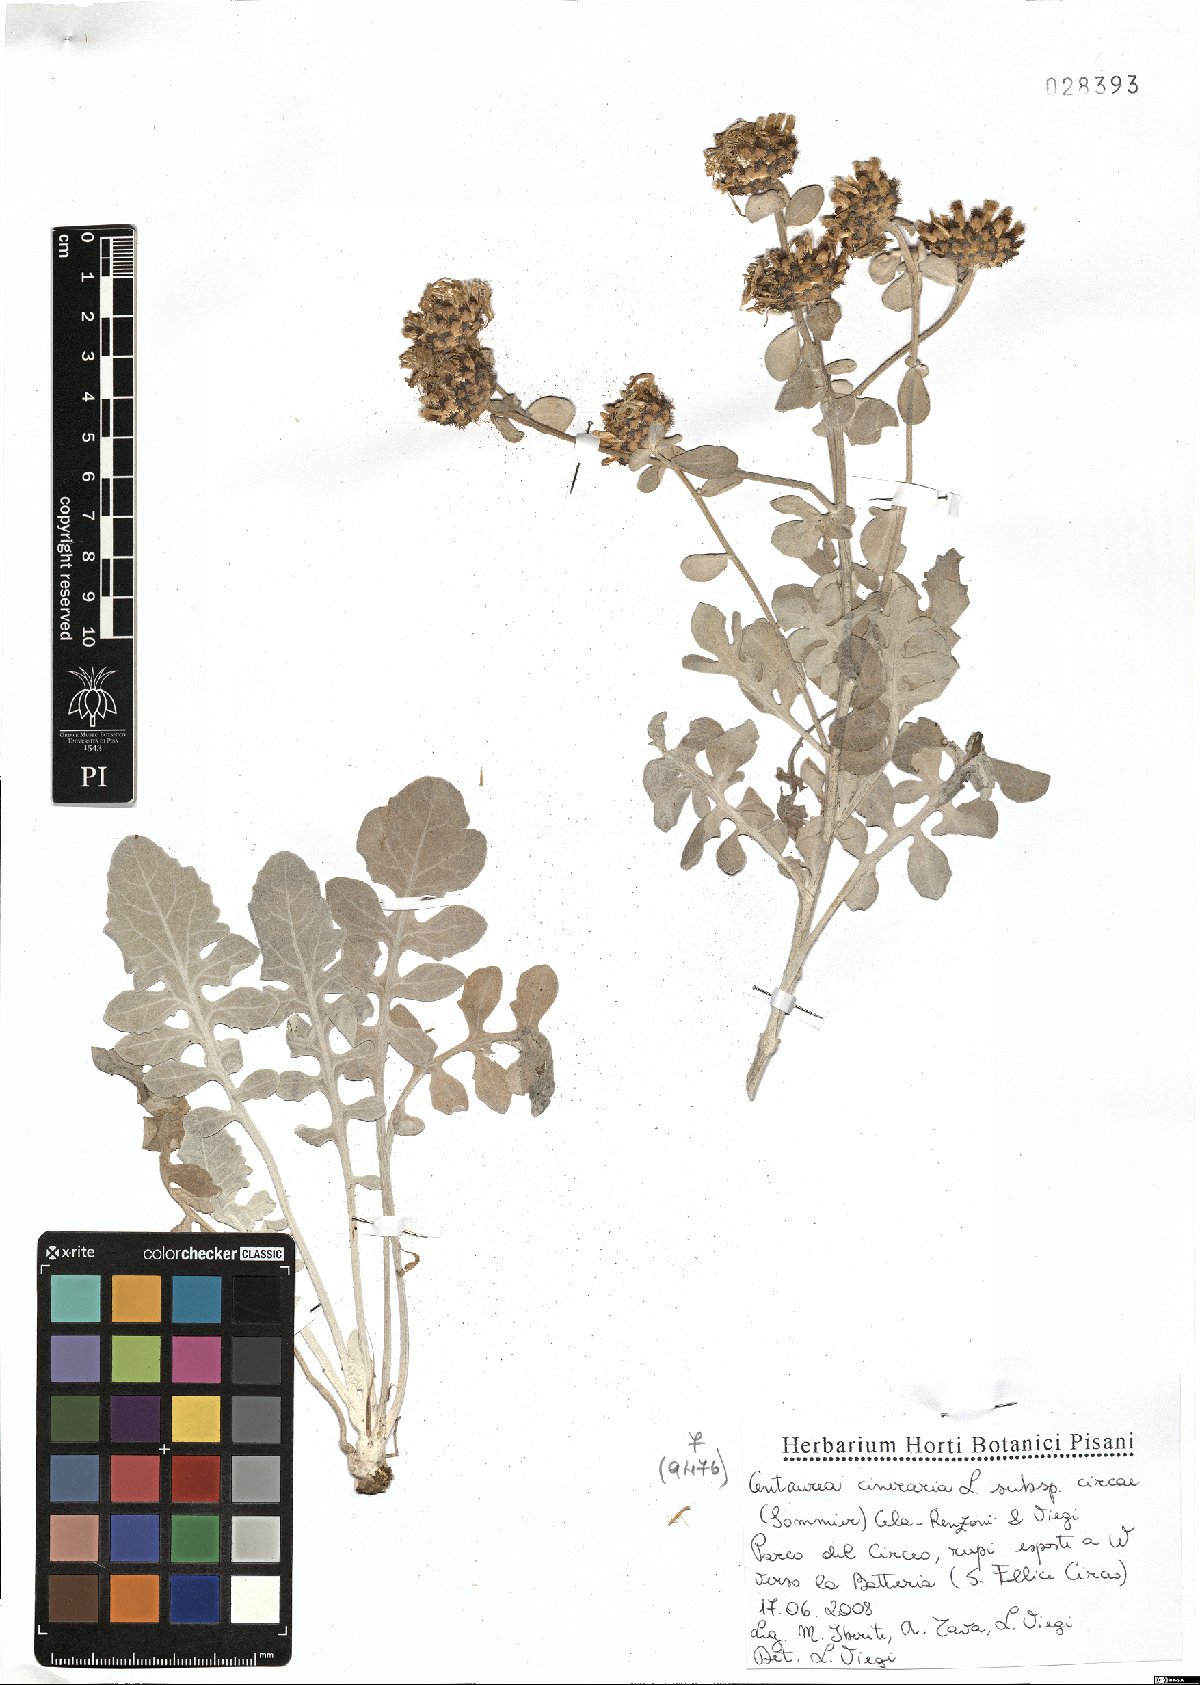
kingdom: Plantae
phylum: Tracheophyta
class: Magnoliopsida
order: Asterales
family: Asteraceae
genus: Centaurea
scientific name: Centaurea cineraria
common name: Dusty miller
